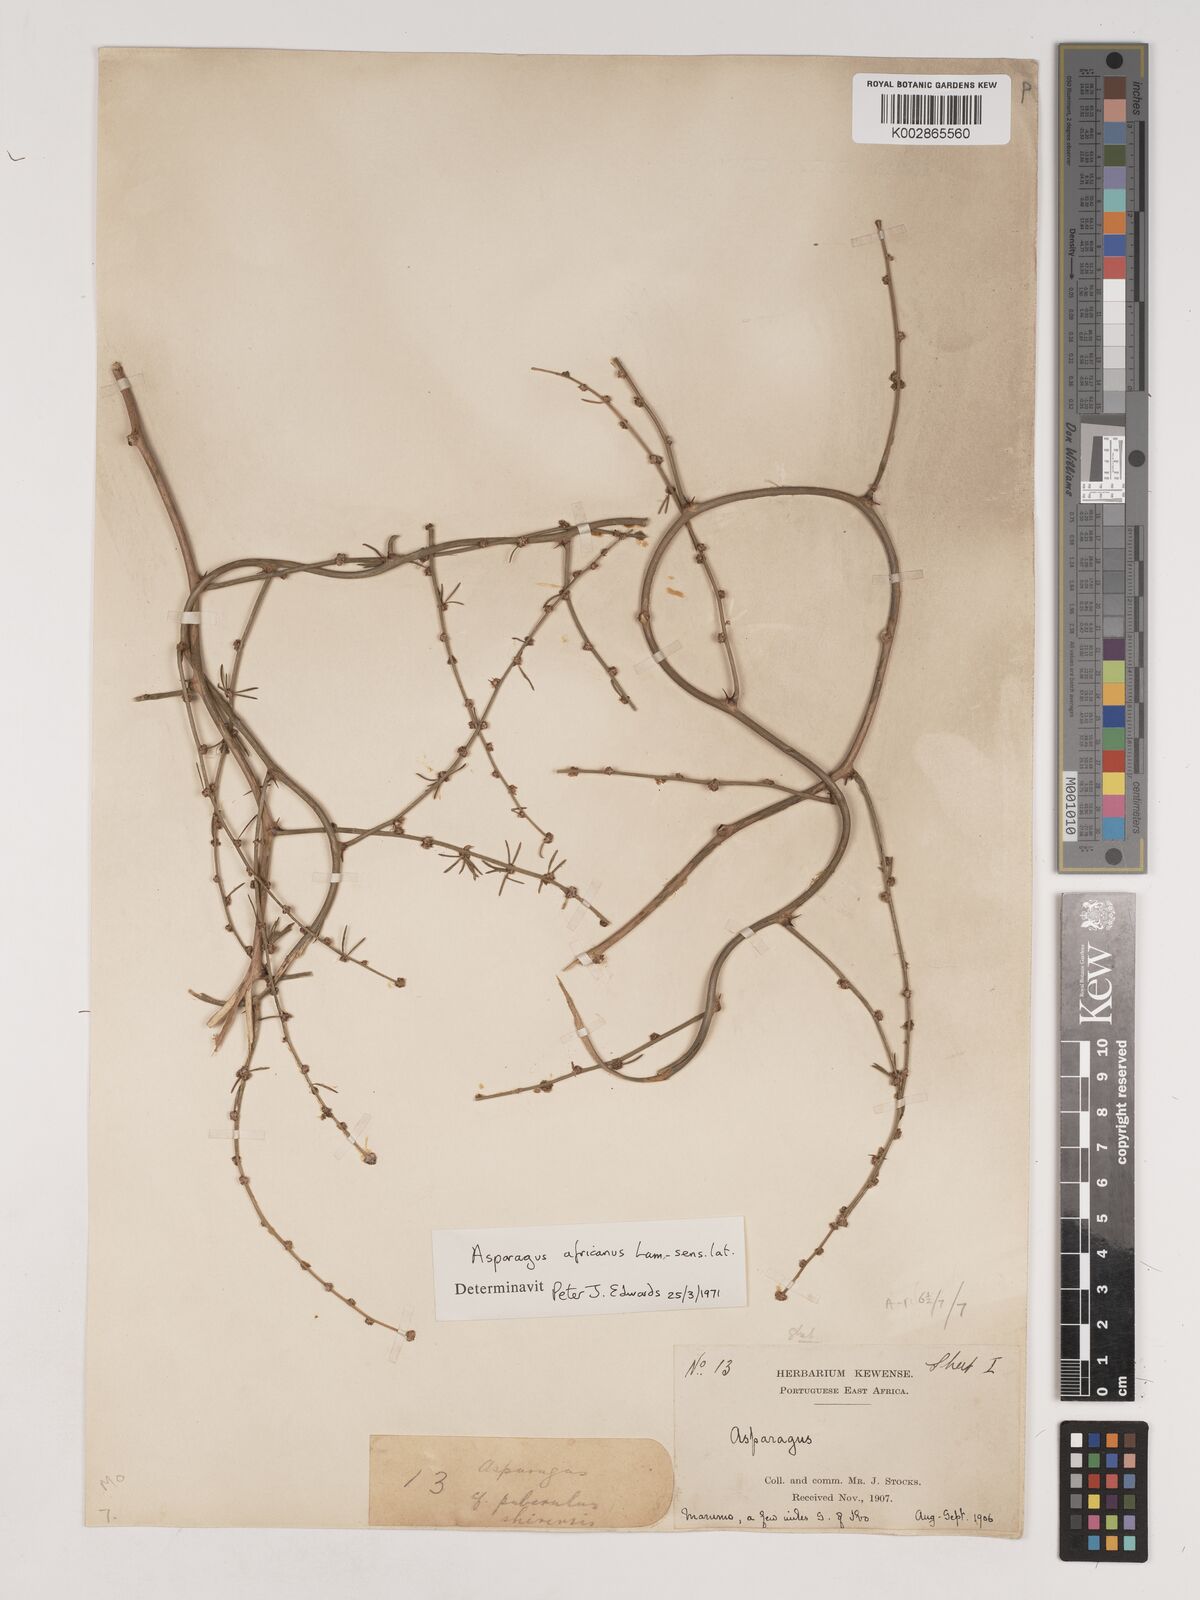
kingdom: Plantae
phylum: Tracheophyta
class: Liliopsida
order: Asparagales
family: Asparagaceae
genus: Asparagus
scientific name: Asparagus africanus
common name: Asparagus-fern
